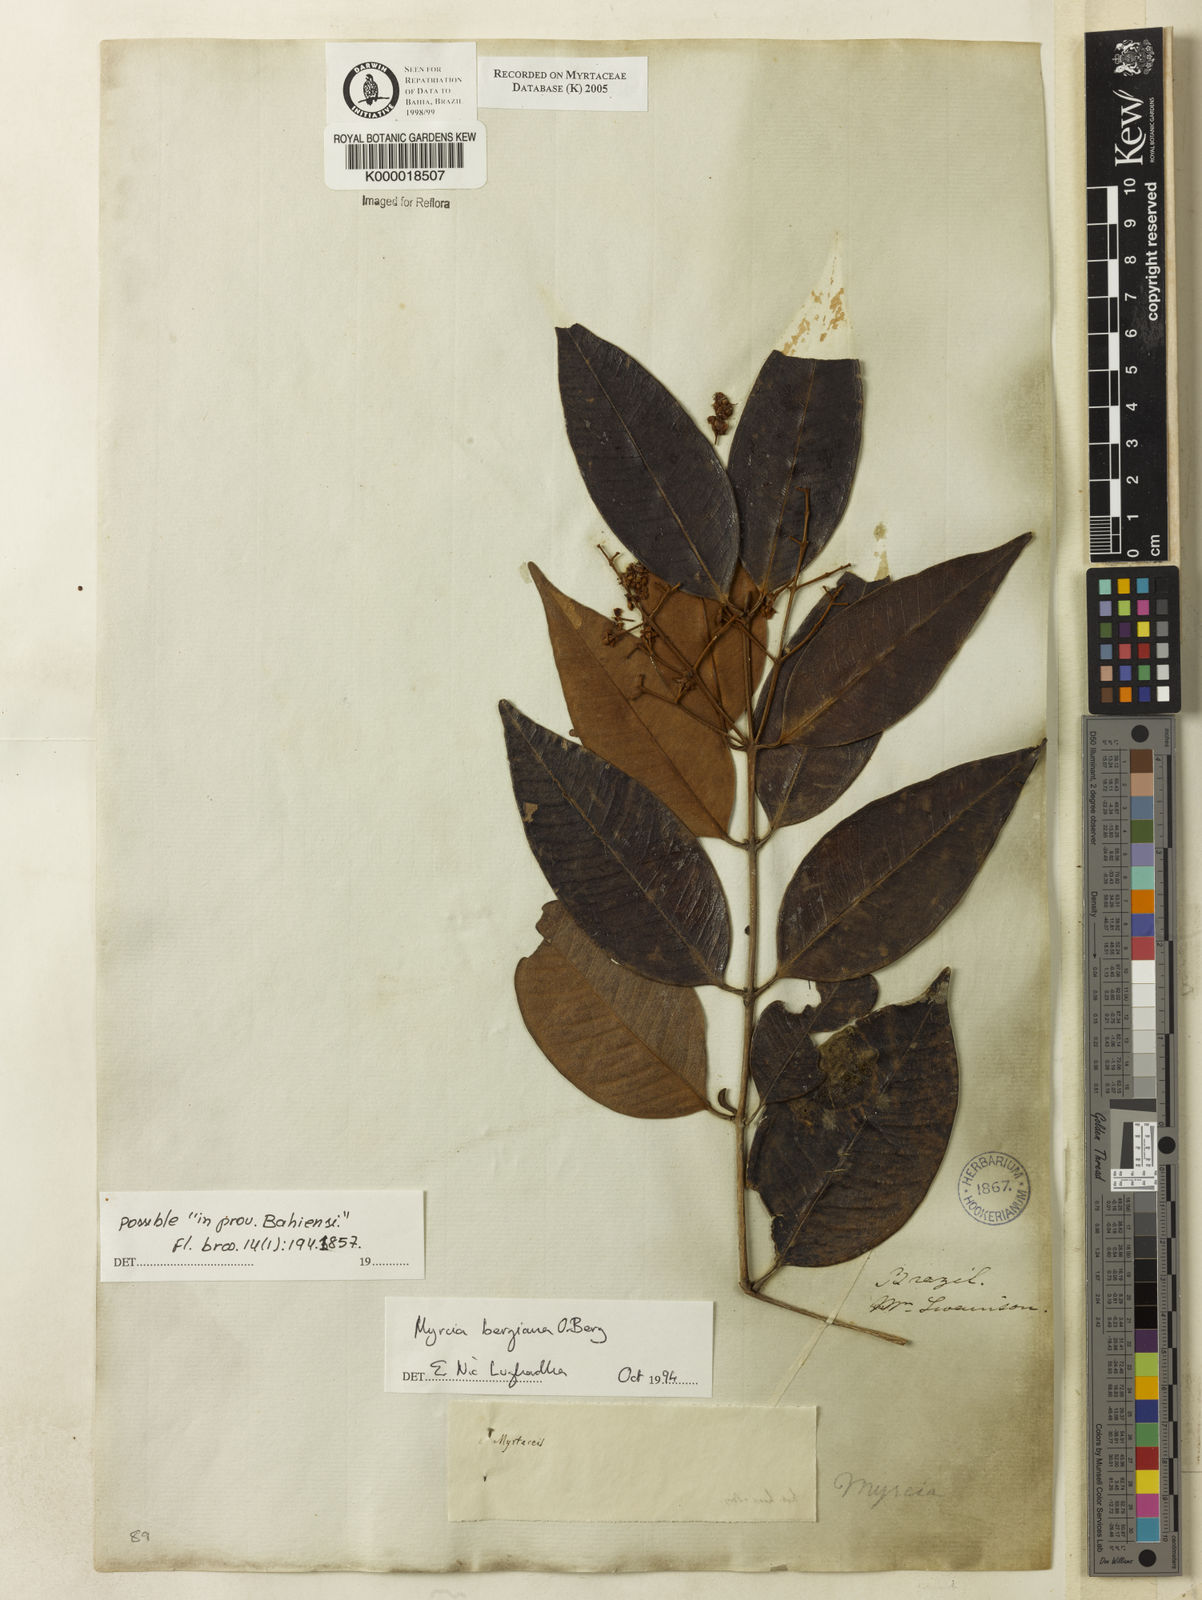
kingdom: Plantae
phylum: Tracheophyta
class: Magnoliopsida
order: Myrtales
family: Myrtaceae
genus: Myrcia
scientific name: Myrcia bergiana
